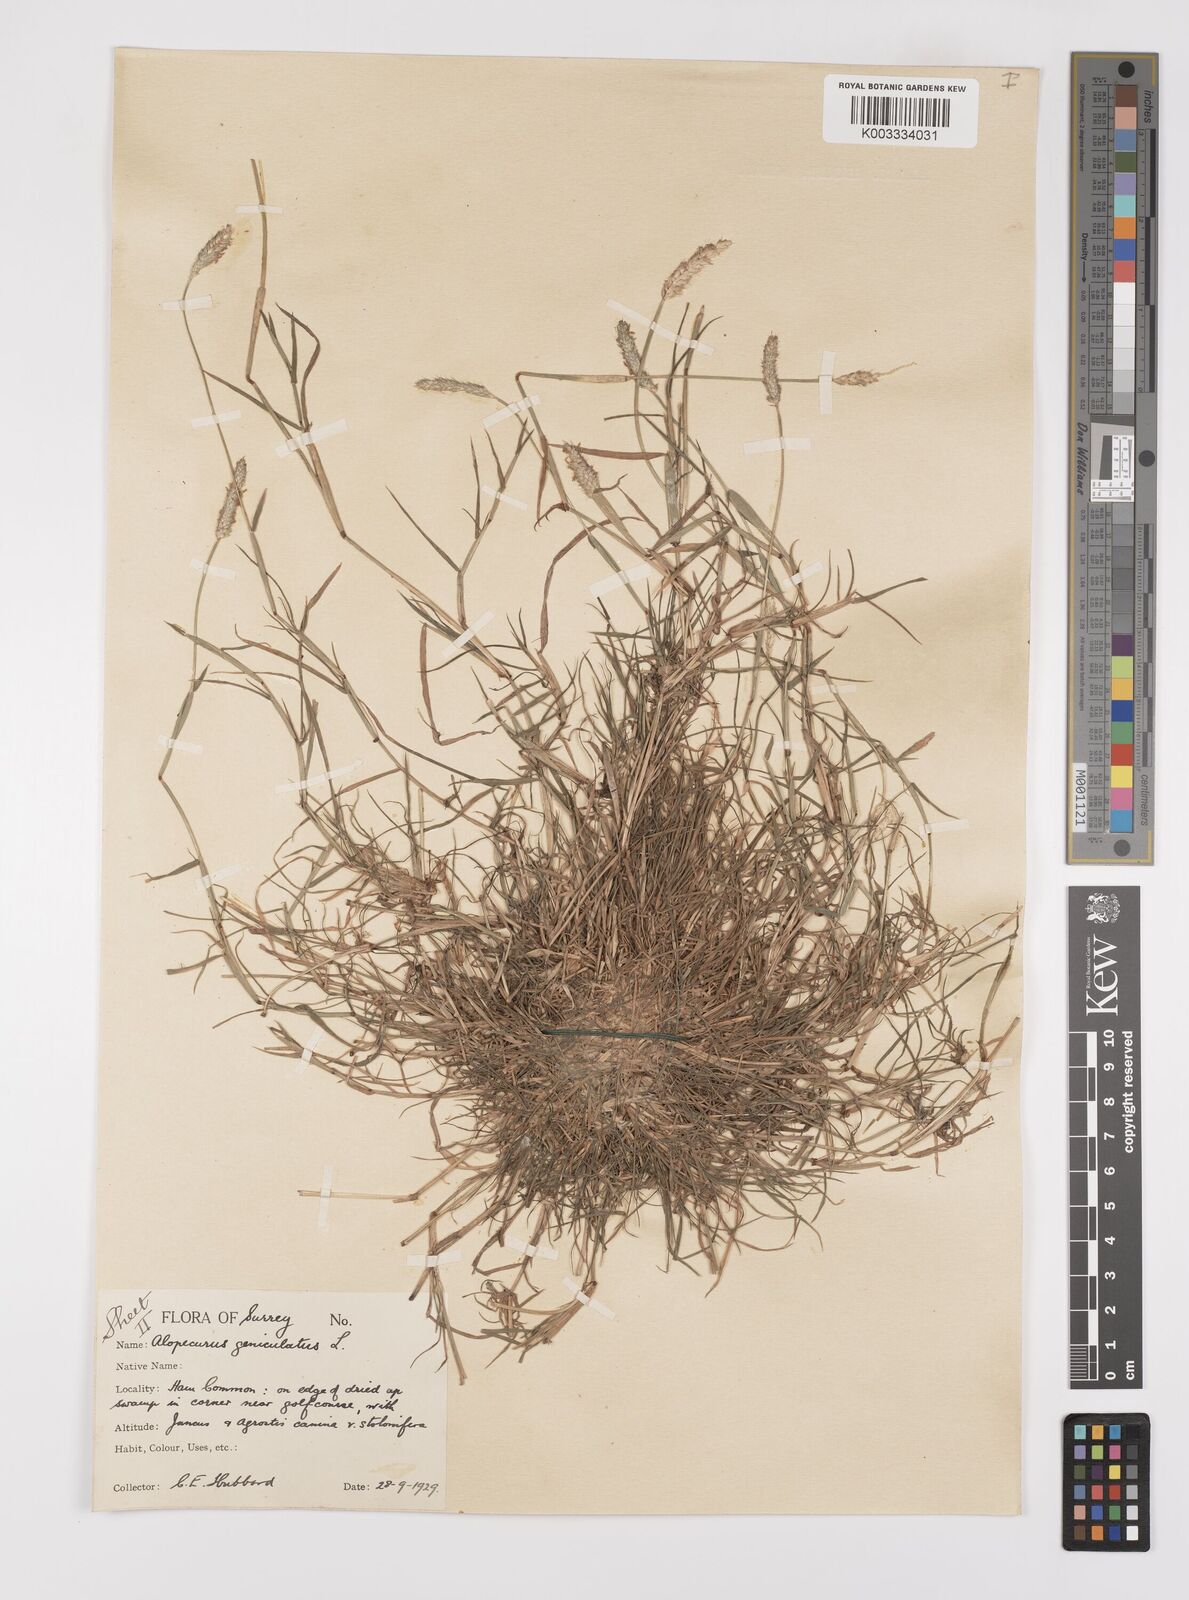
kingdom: Plantae
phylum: Tracheophyta
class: Liliopsida
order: Poales
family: Poaceae
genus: Alopecurus
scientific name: Alopecurus geniculatus
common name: Water foxtail
